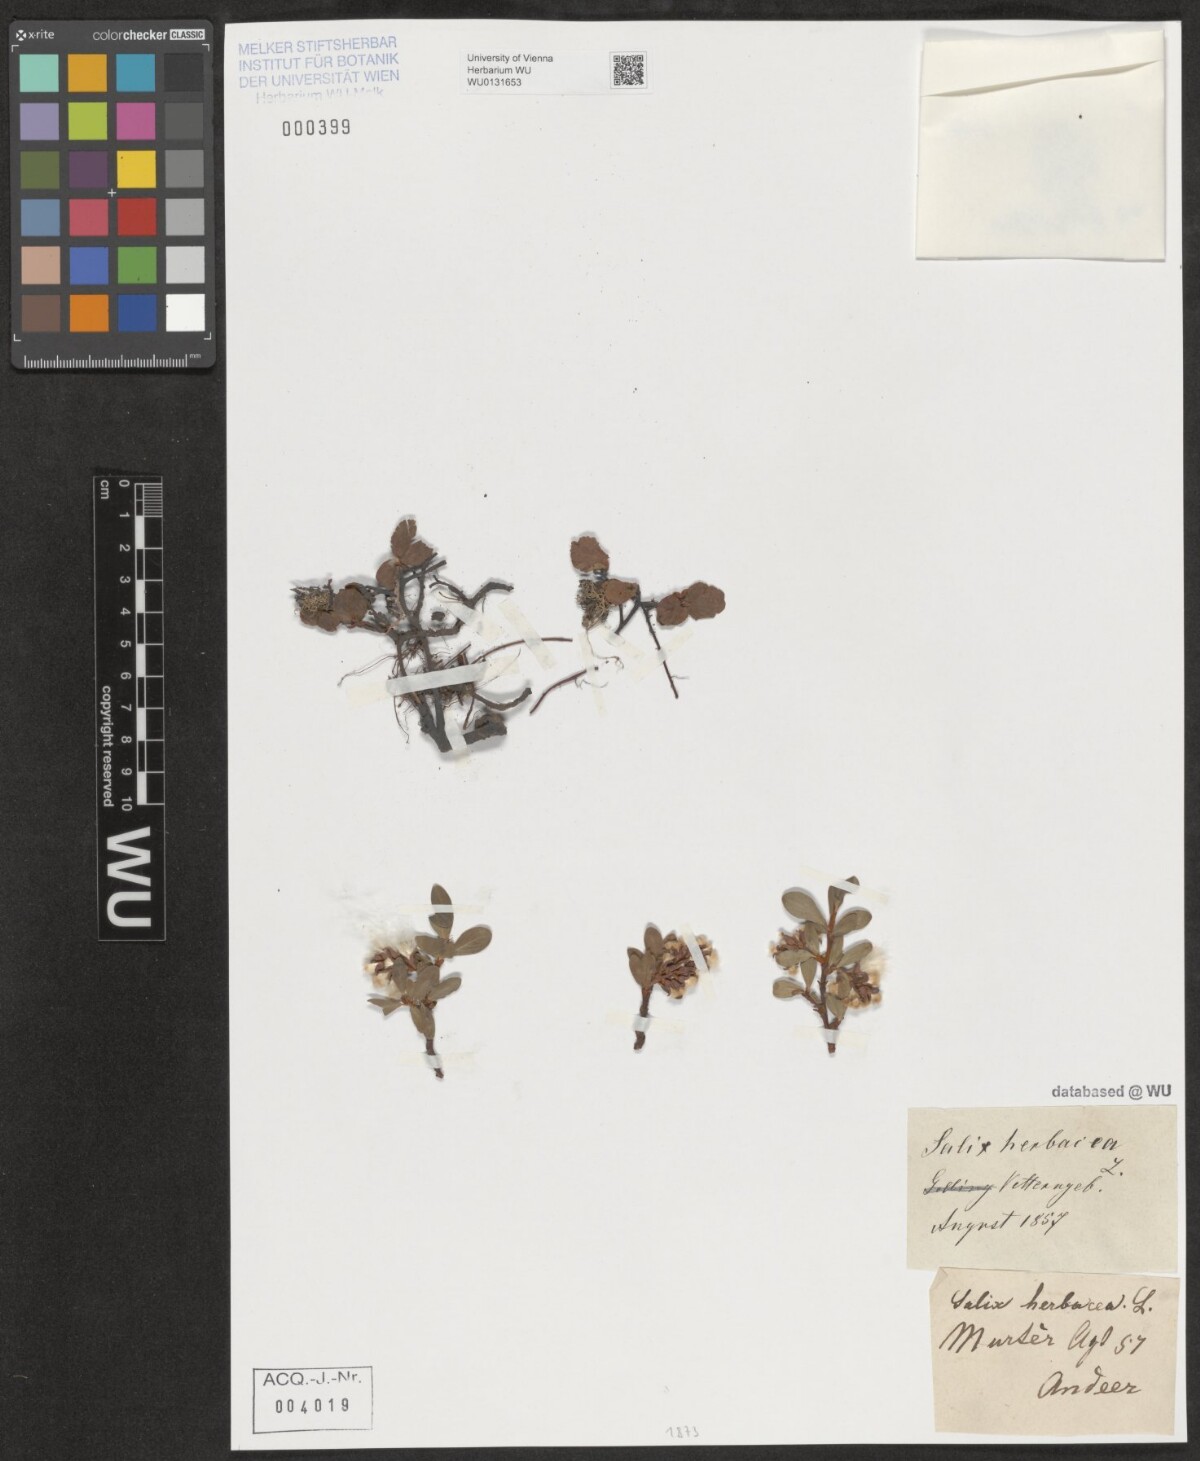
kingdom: Plantae
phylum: Tracheophyta
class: Magnoliopsida
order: Malpighiales
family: Salicaceae
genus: Salix
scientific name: Salix herbacea
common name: Dwarf willow
